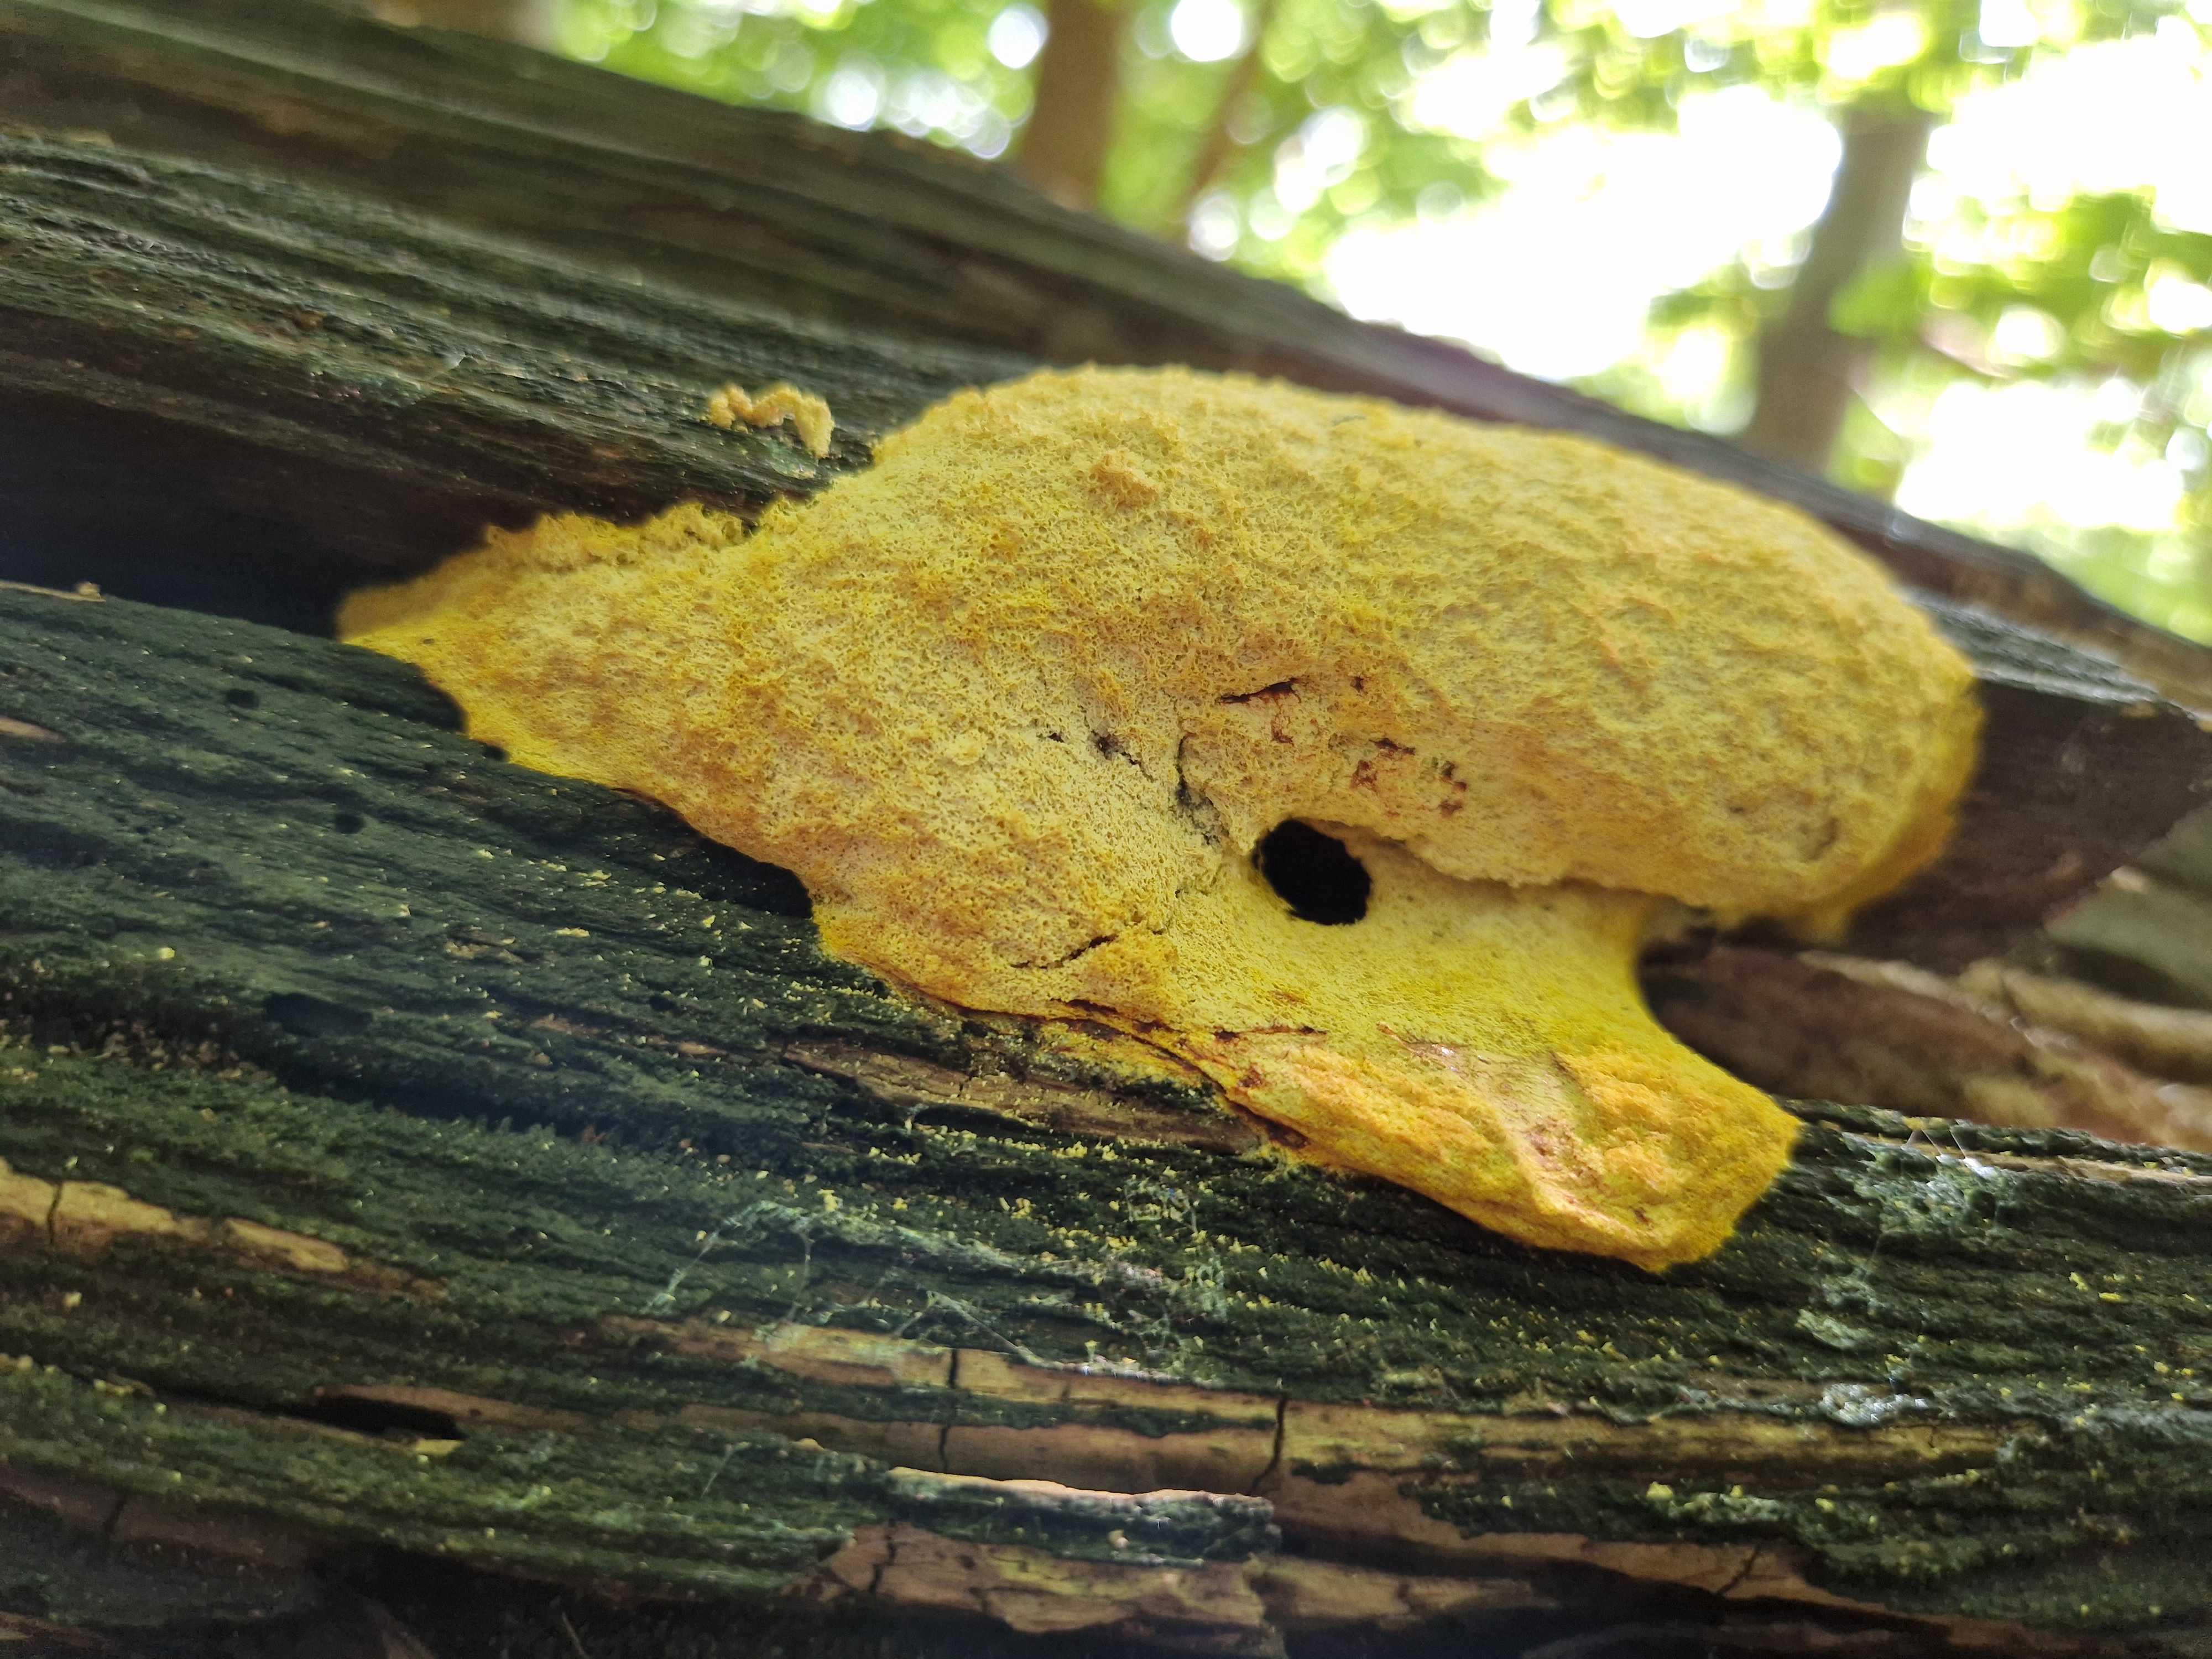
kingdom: Protozoa
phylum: Mycetozoa
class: Myxomycetes
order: Physarales
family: Physaraceae
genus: Fuligo
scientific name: Fuligo septica
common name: gul troldsmør
